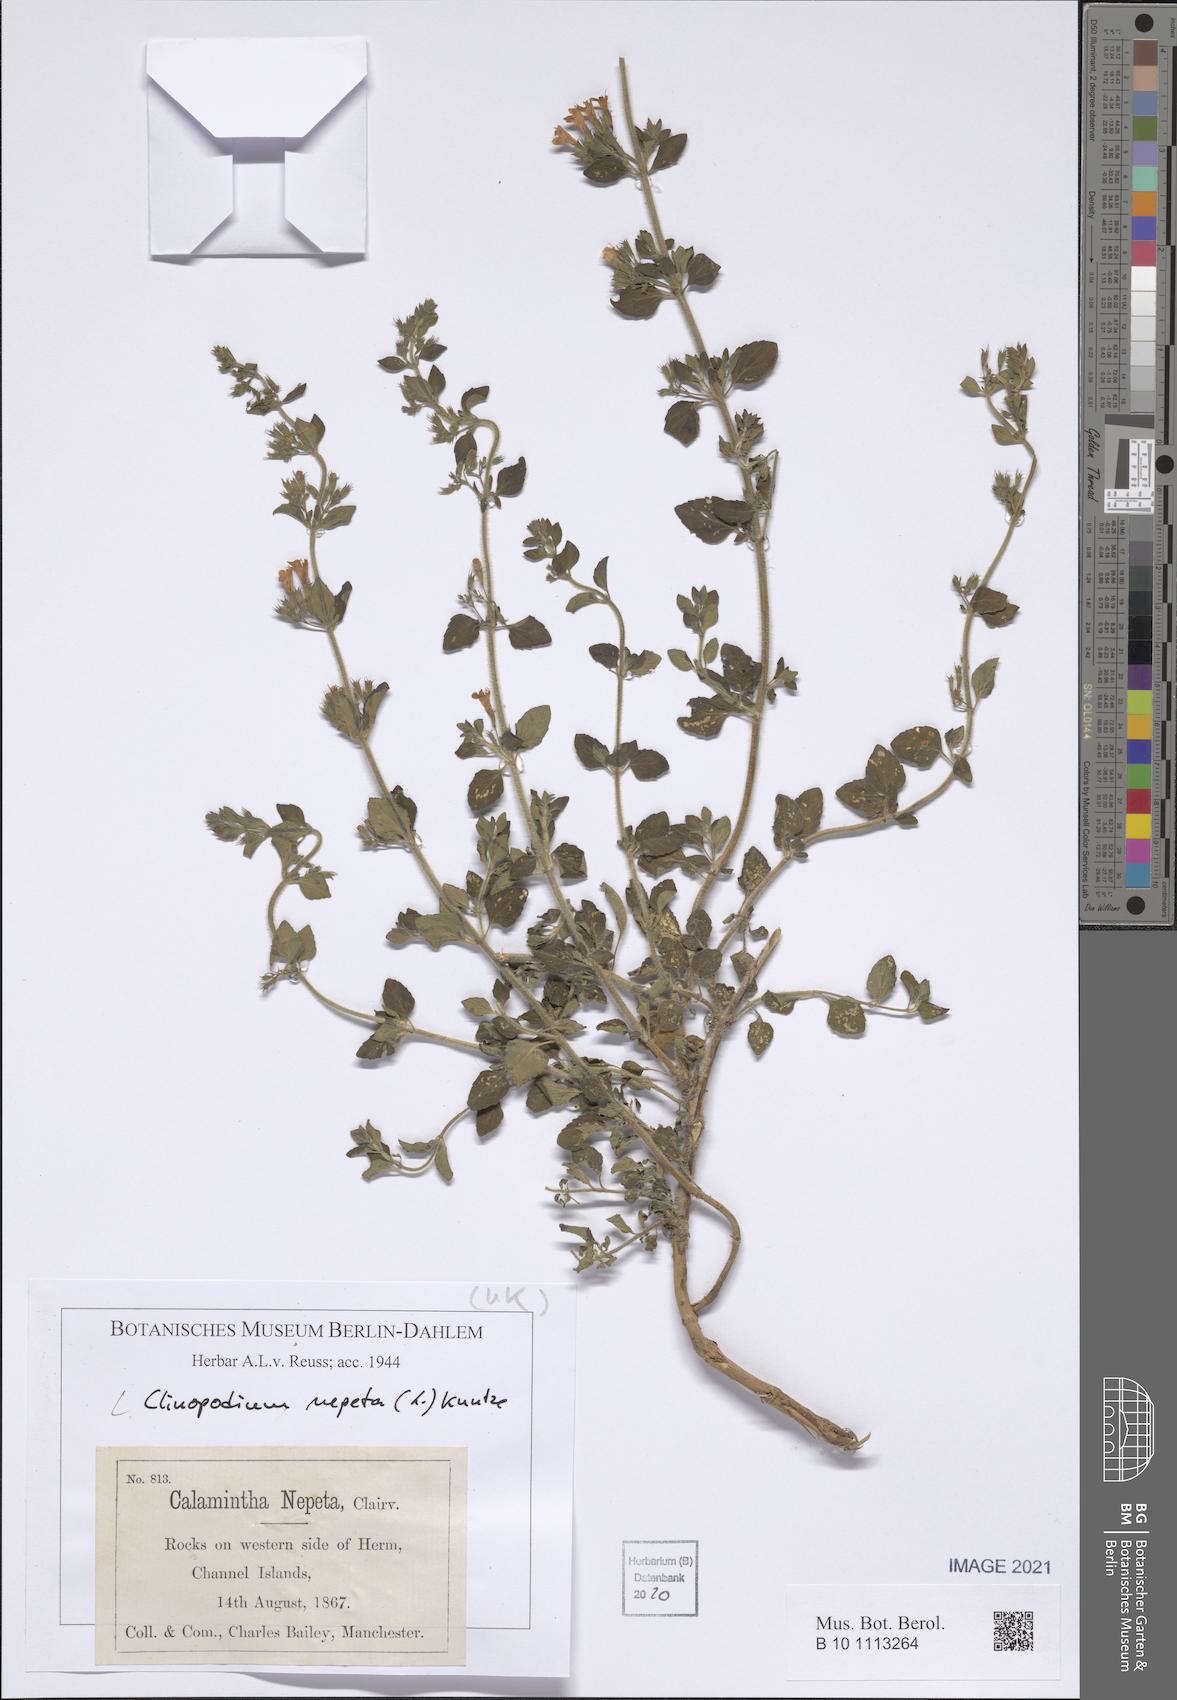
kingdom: Plantae
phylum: Tracheophyta
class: Magnoliopsida
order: Lamiales
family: Lamiaceae
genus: Clinopodium
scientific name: Clinopodium nepeta
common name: Lesser calamint
